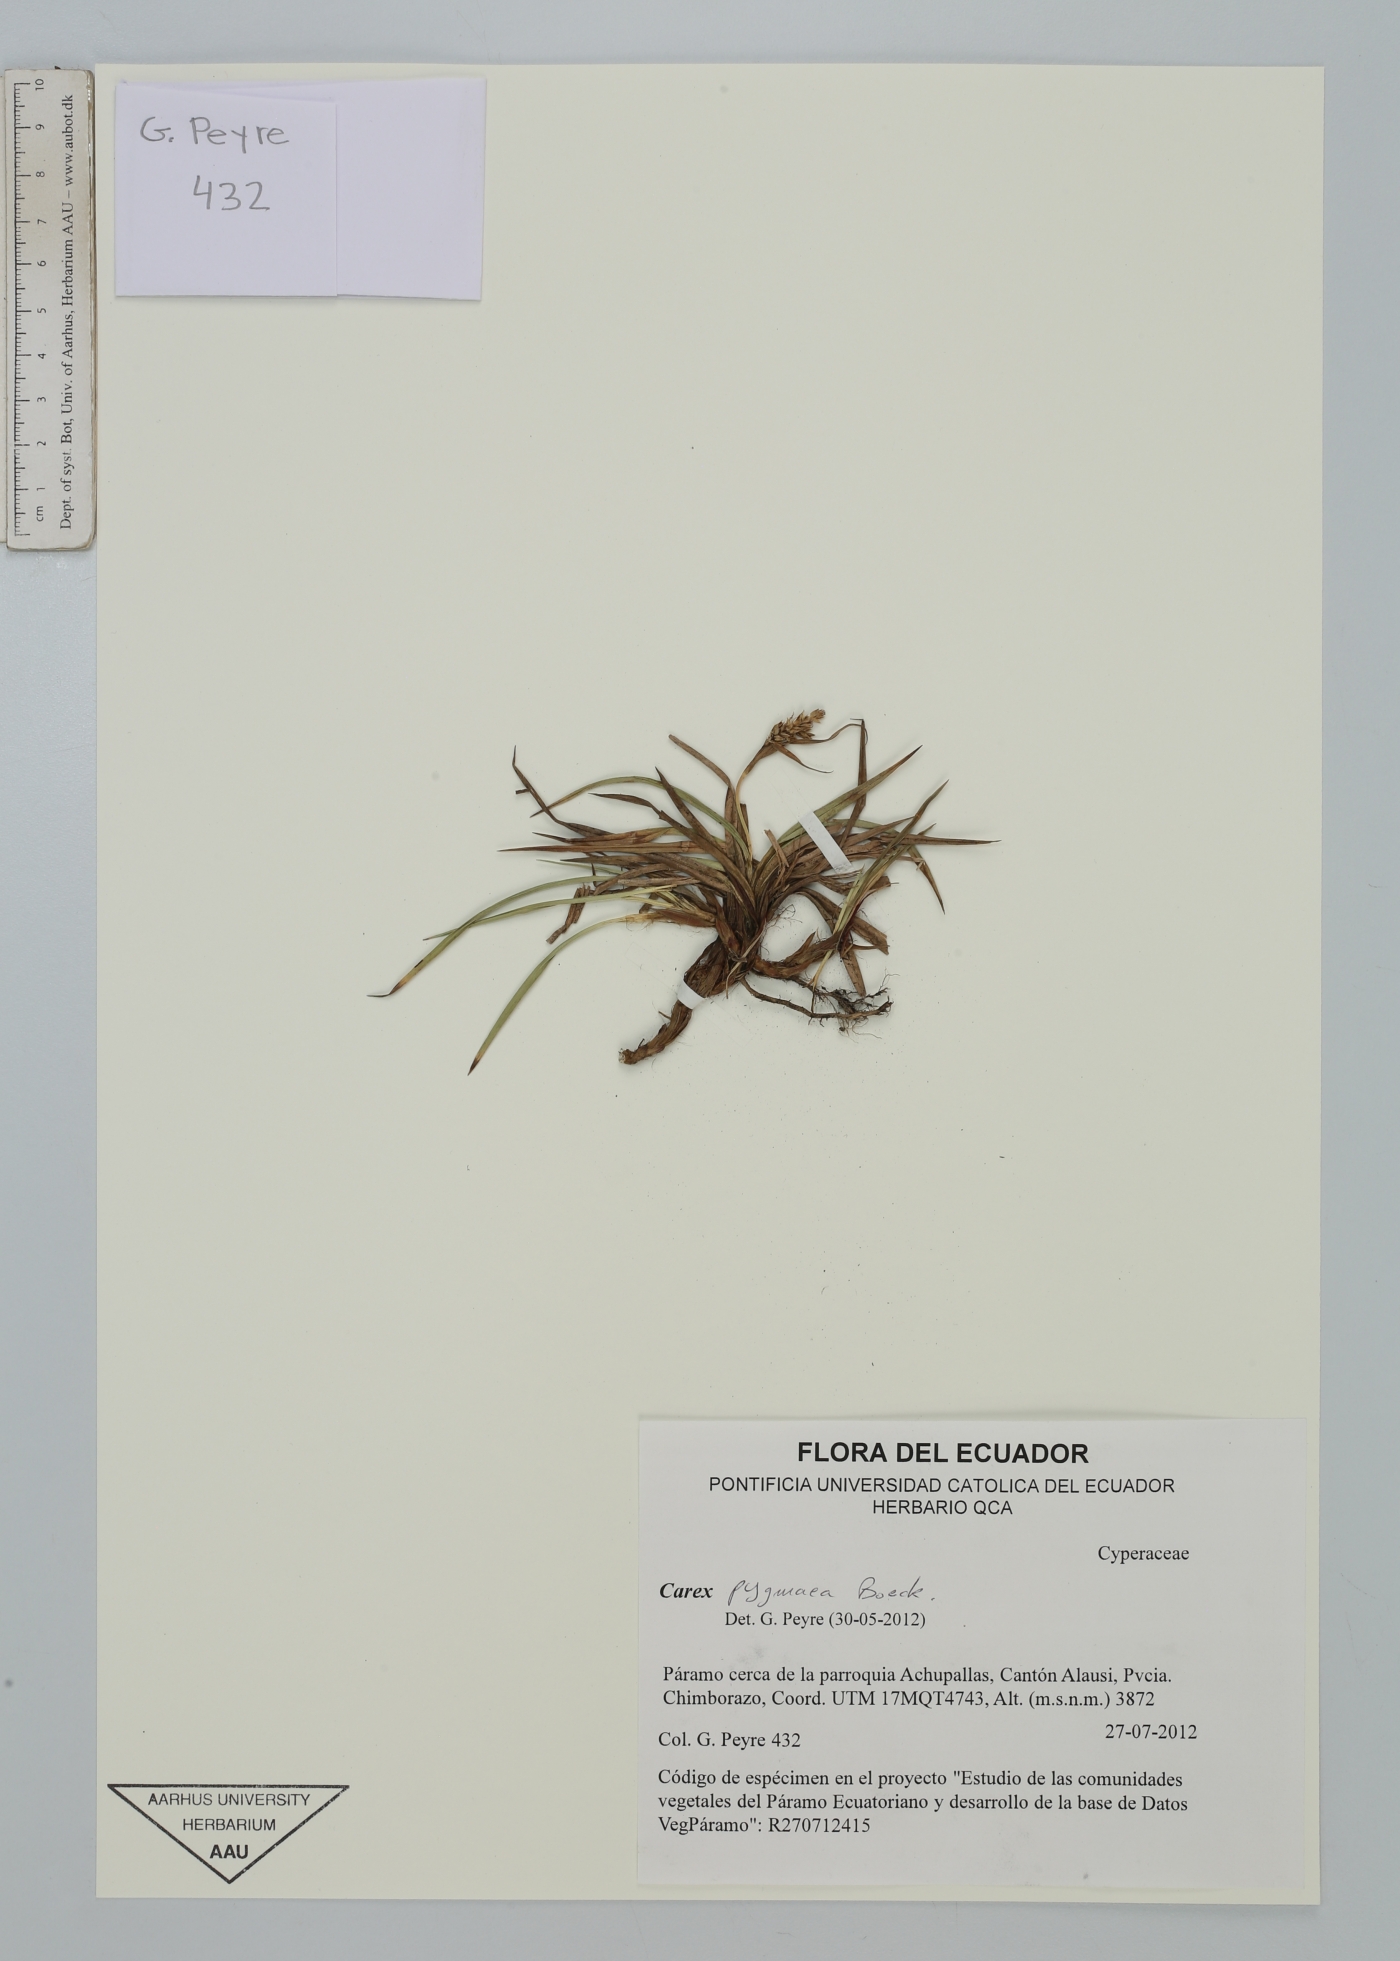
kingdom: Plantae
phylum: Tracheophyta
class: Liliopsida
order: Poales
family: Cyperaceae
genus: Carex
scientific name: Carex pygmaea
